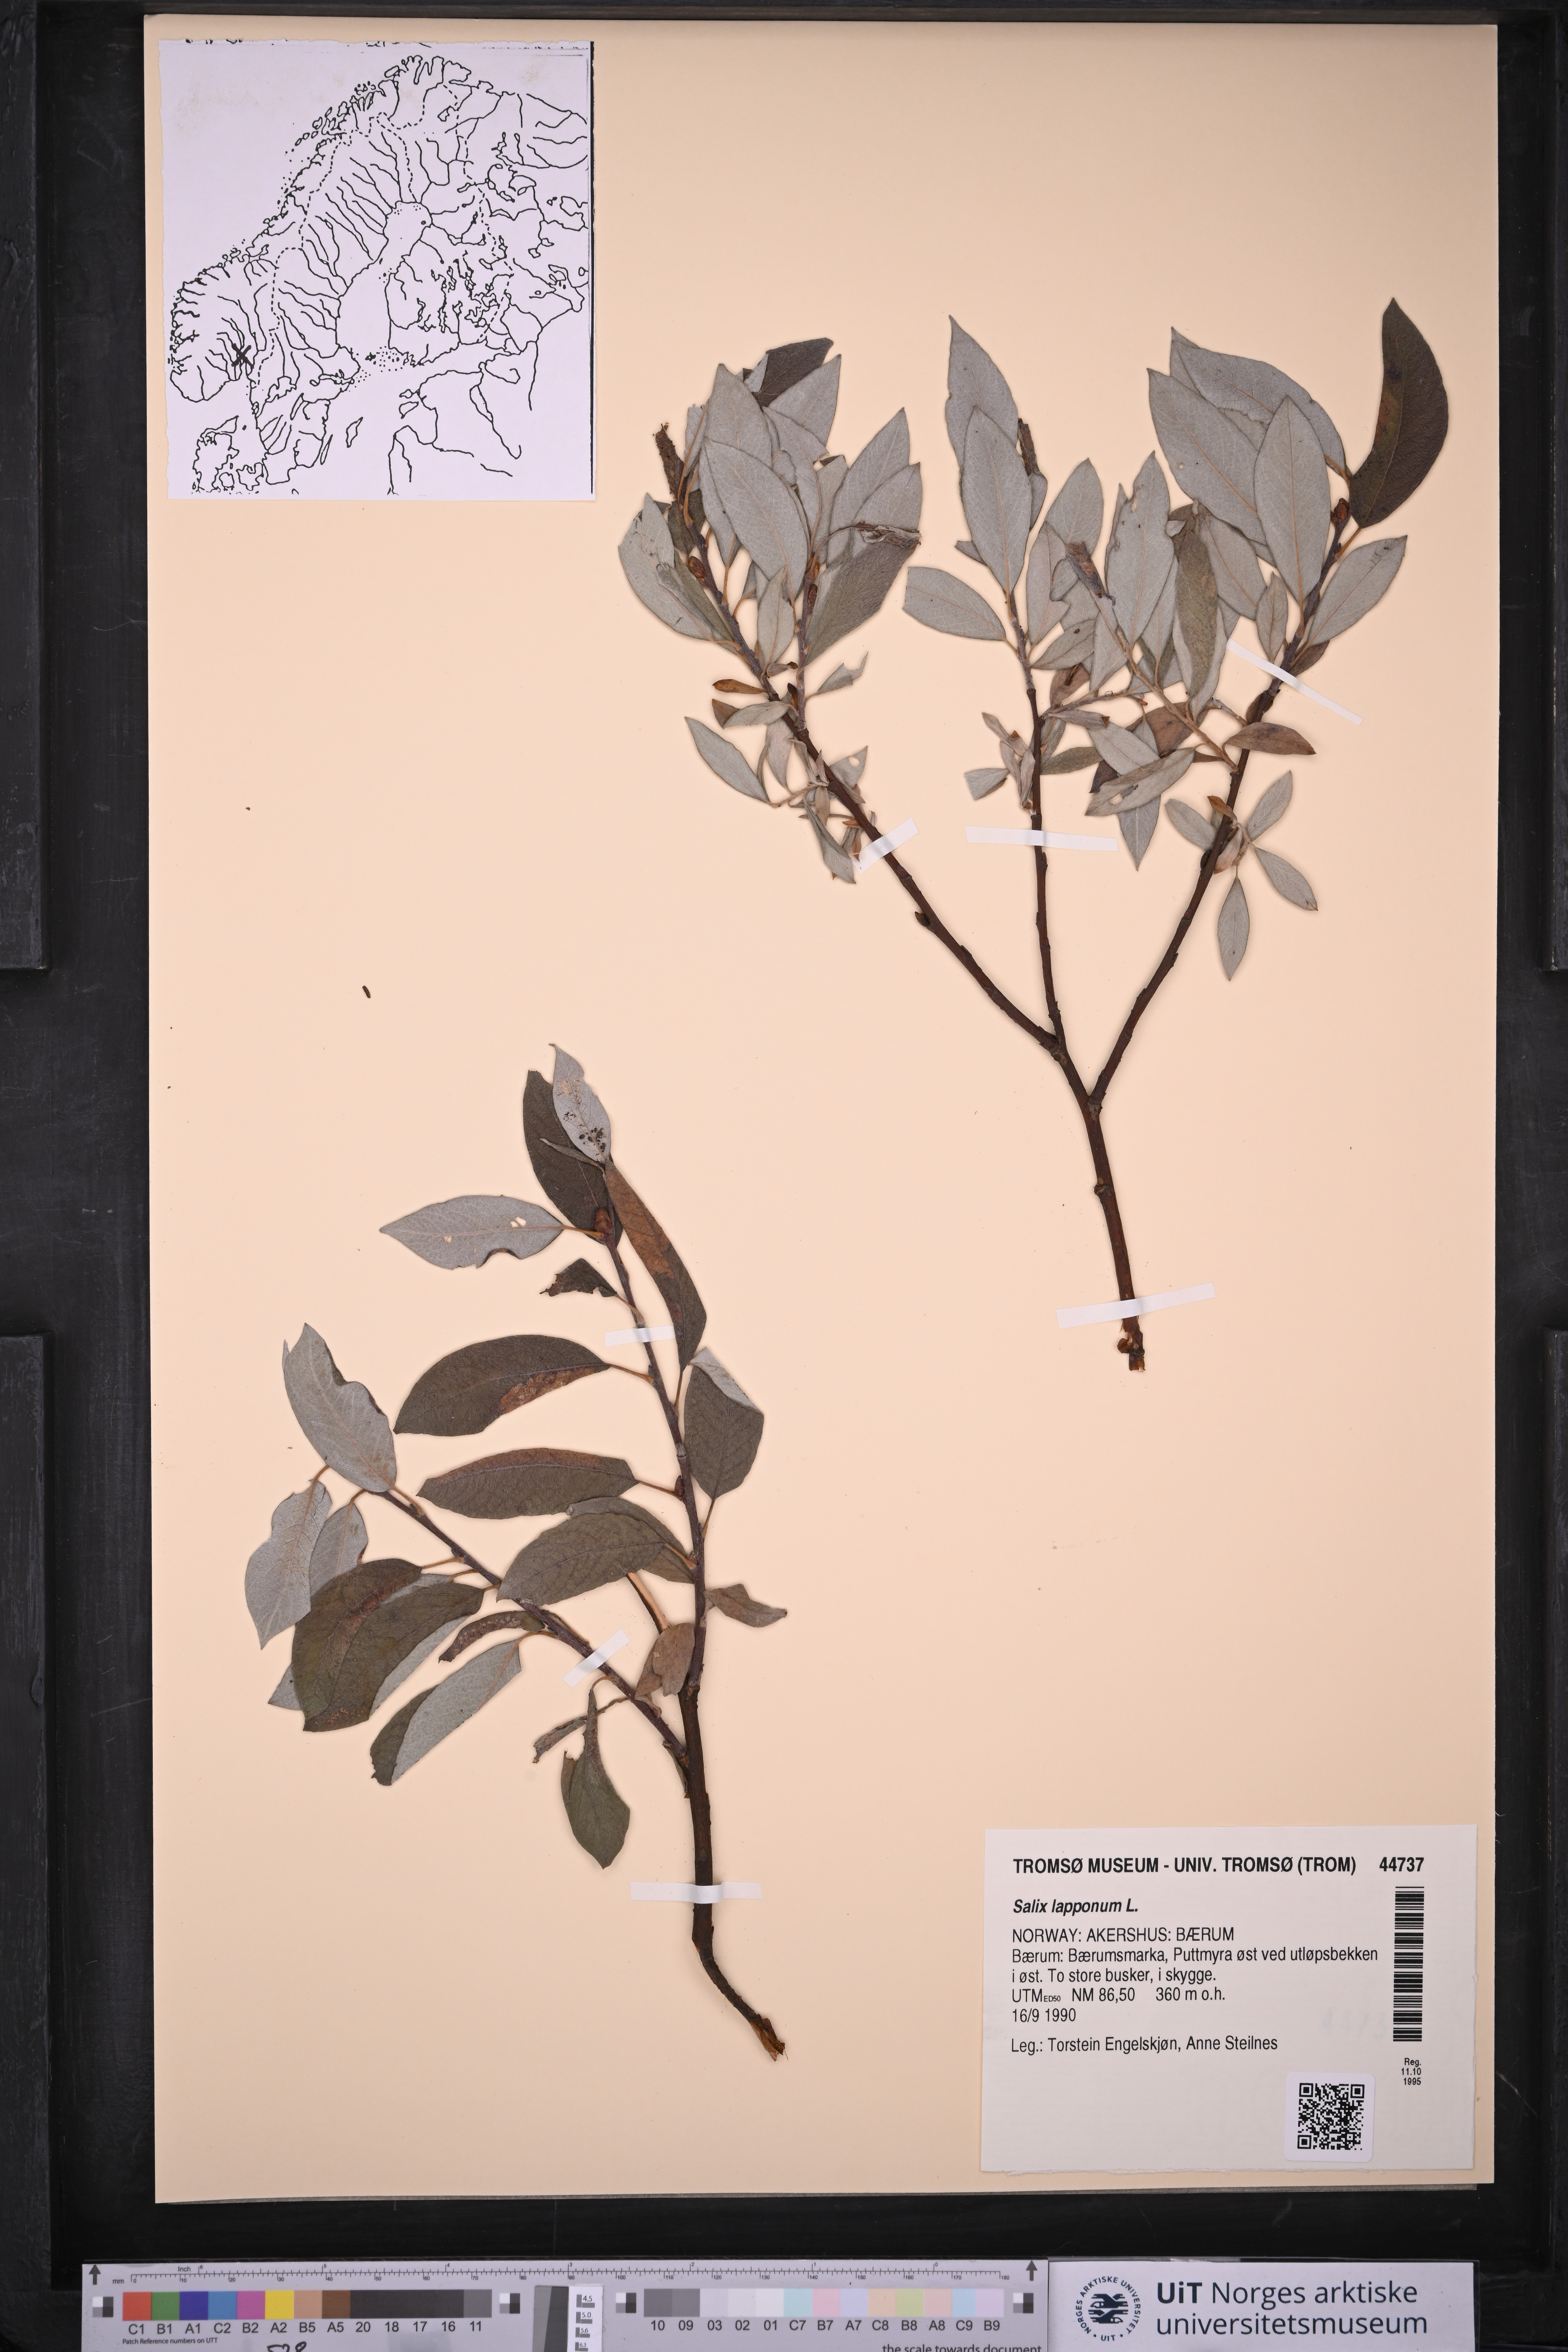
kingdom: Plantae
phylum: Tracheophyta
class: Magnoliopsida
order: Malpighiales
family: Salicaceae
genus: Salix
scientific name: Salix lapponum
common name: Downy willow
